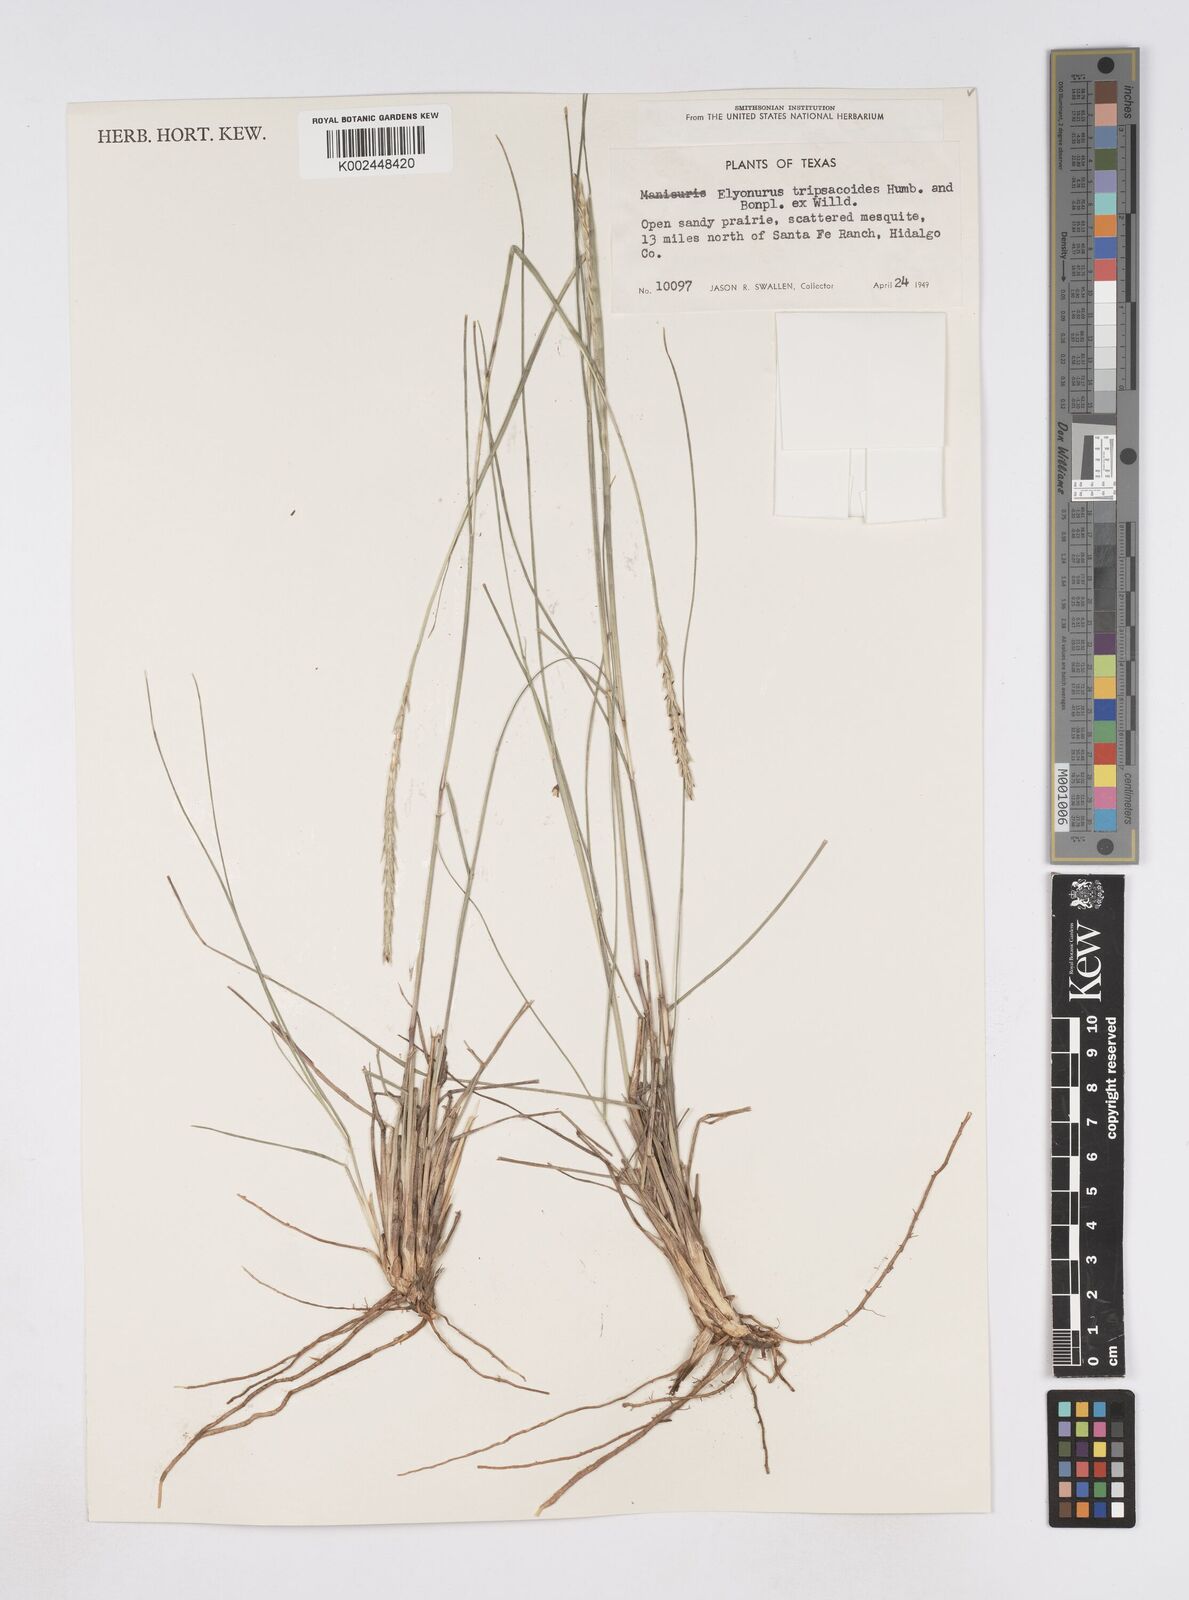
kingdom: Plantae
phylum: Tracheophyta
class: Liliopsida
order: Poales
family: Poaceae
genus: Elionurus
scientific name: Elionurus tripsacoides
